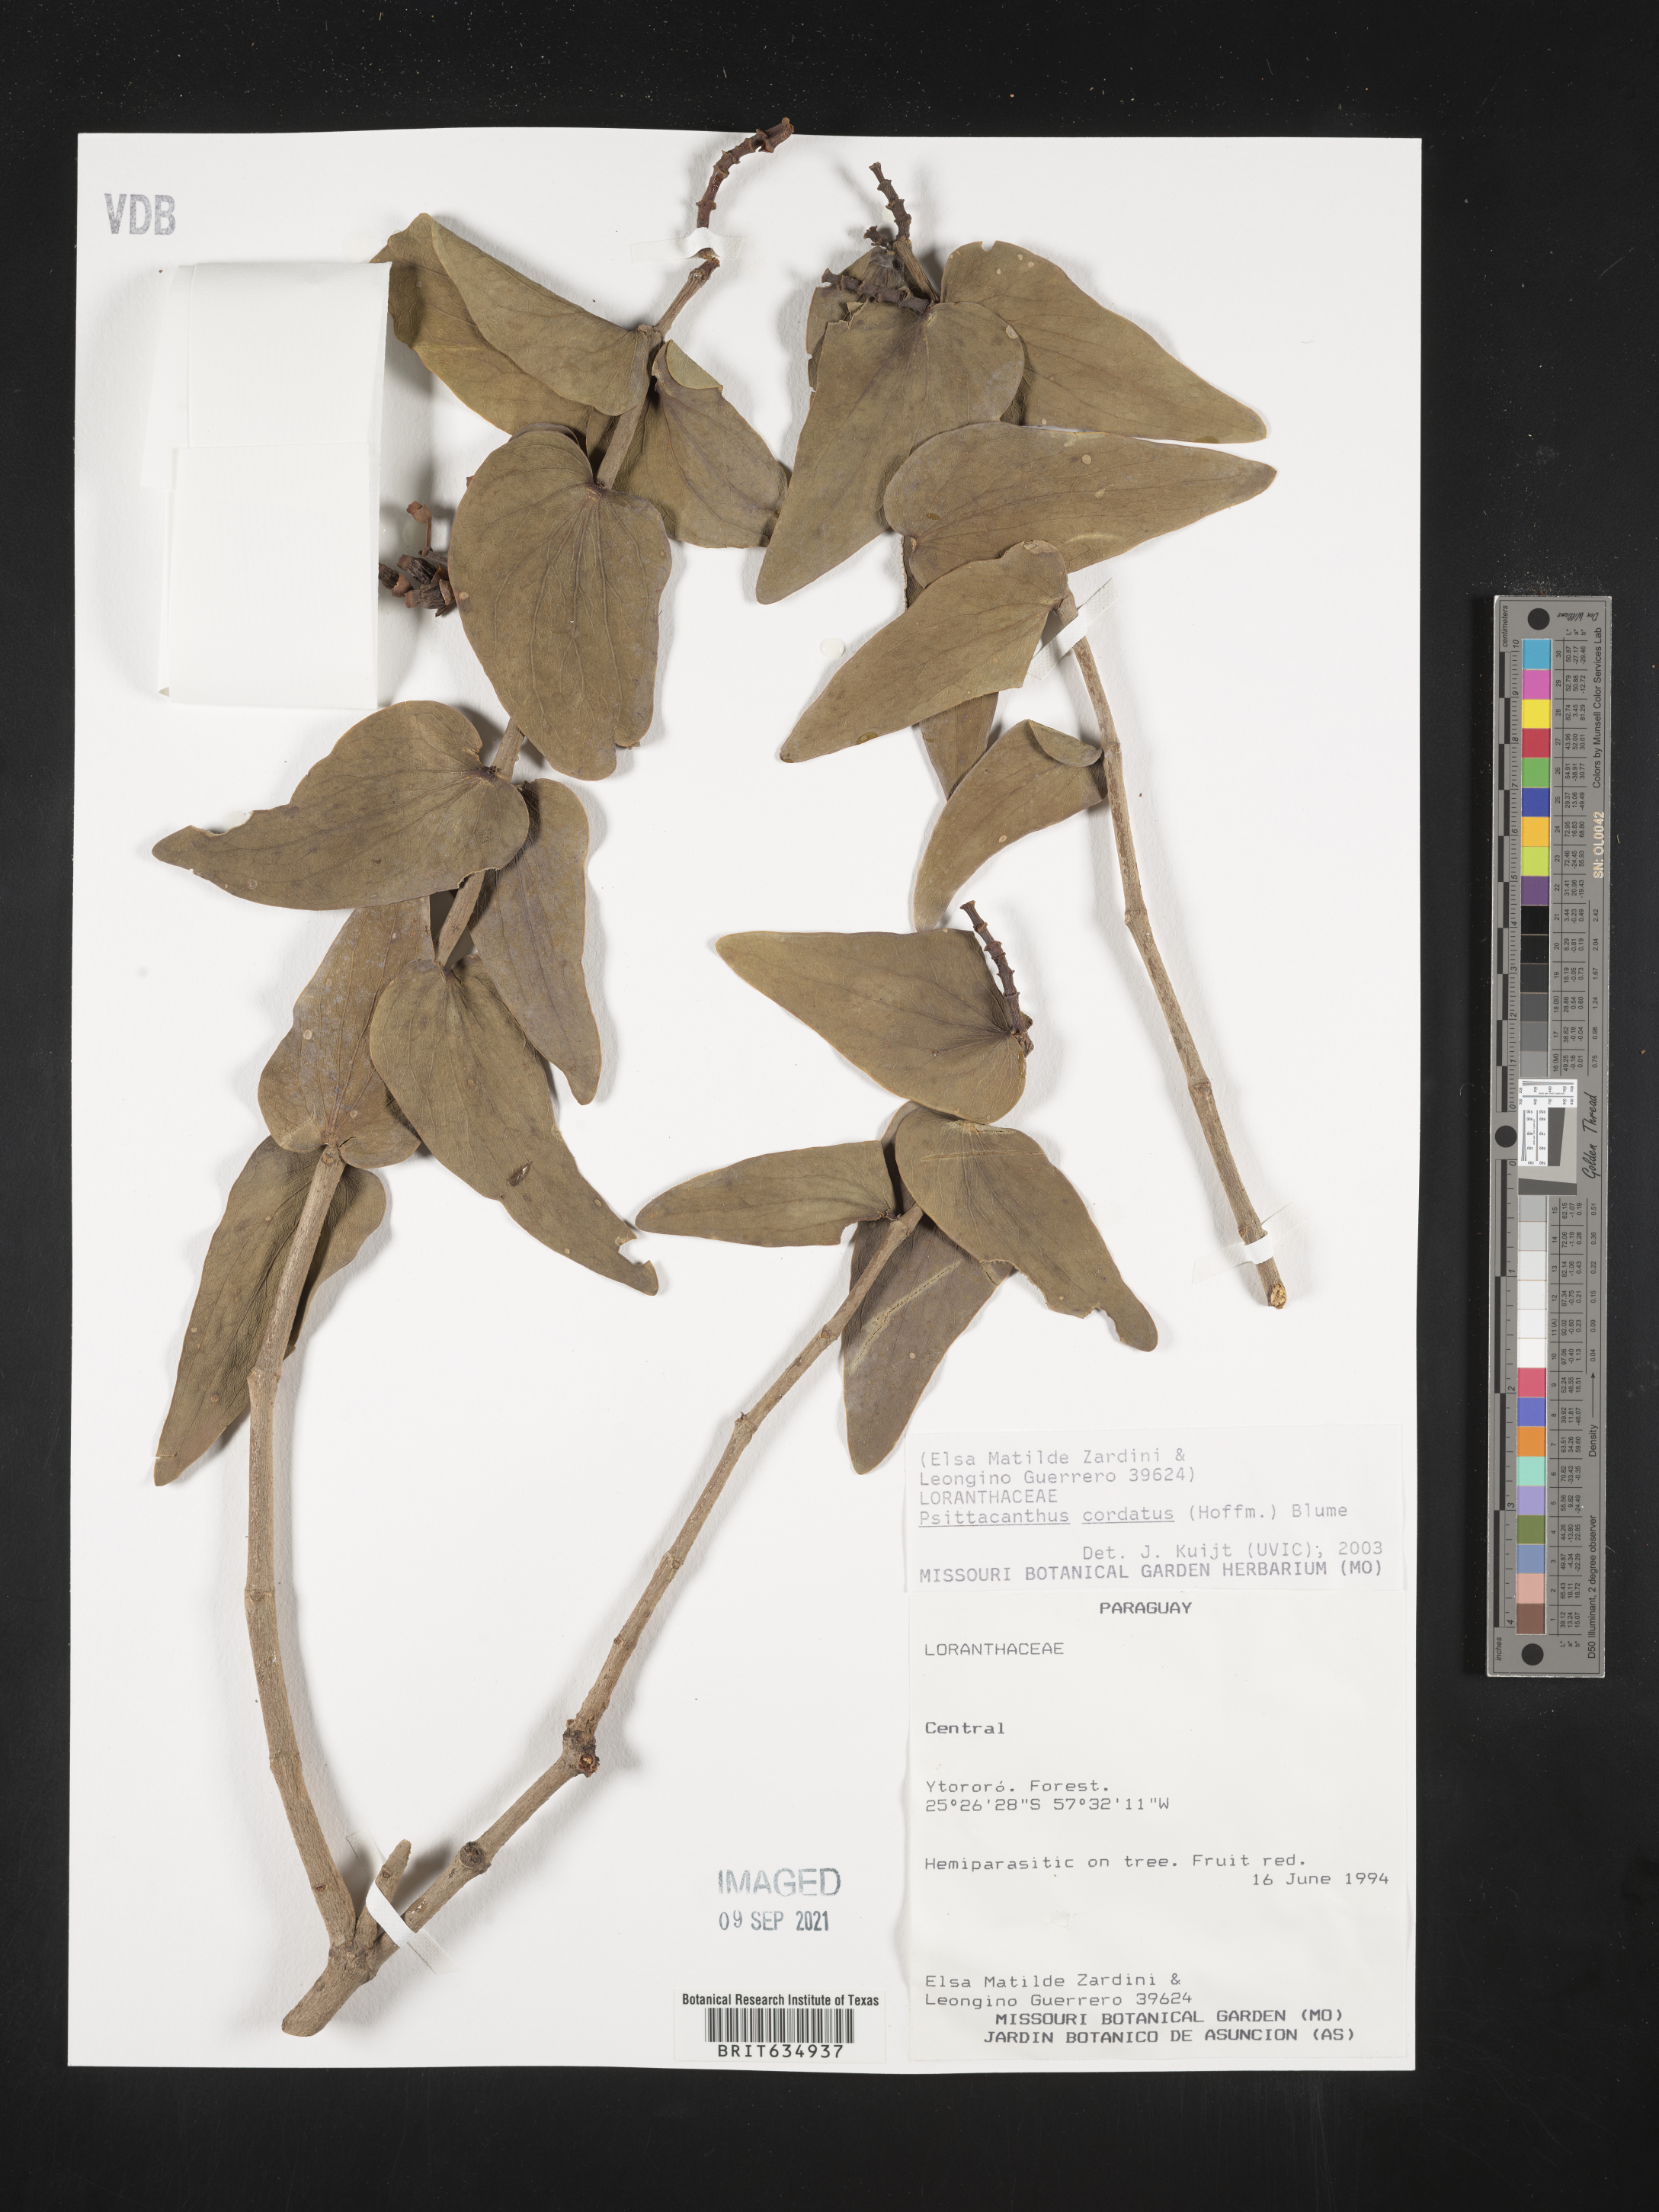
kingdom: Plantae
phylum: Tracheophyta
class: Magnoliopsida
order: Santalales
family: Loranthaceae
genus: Psittacanthus
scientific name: Psittacanthus
